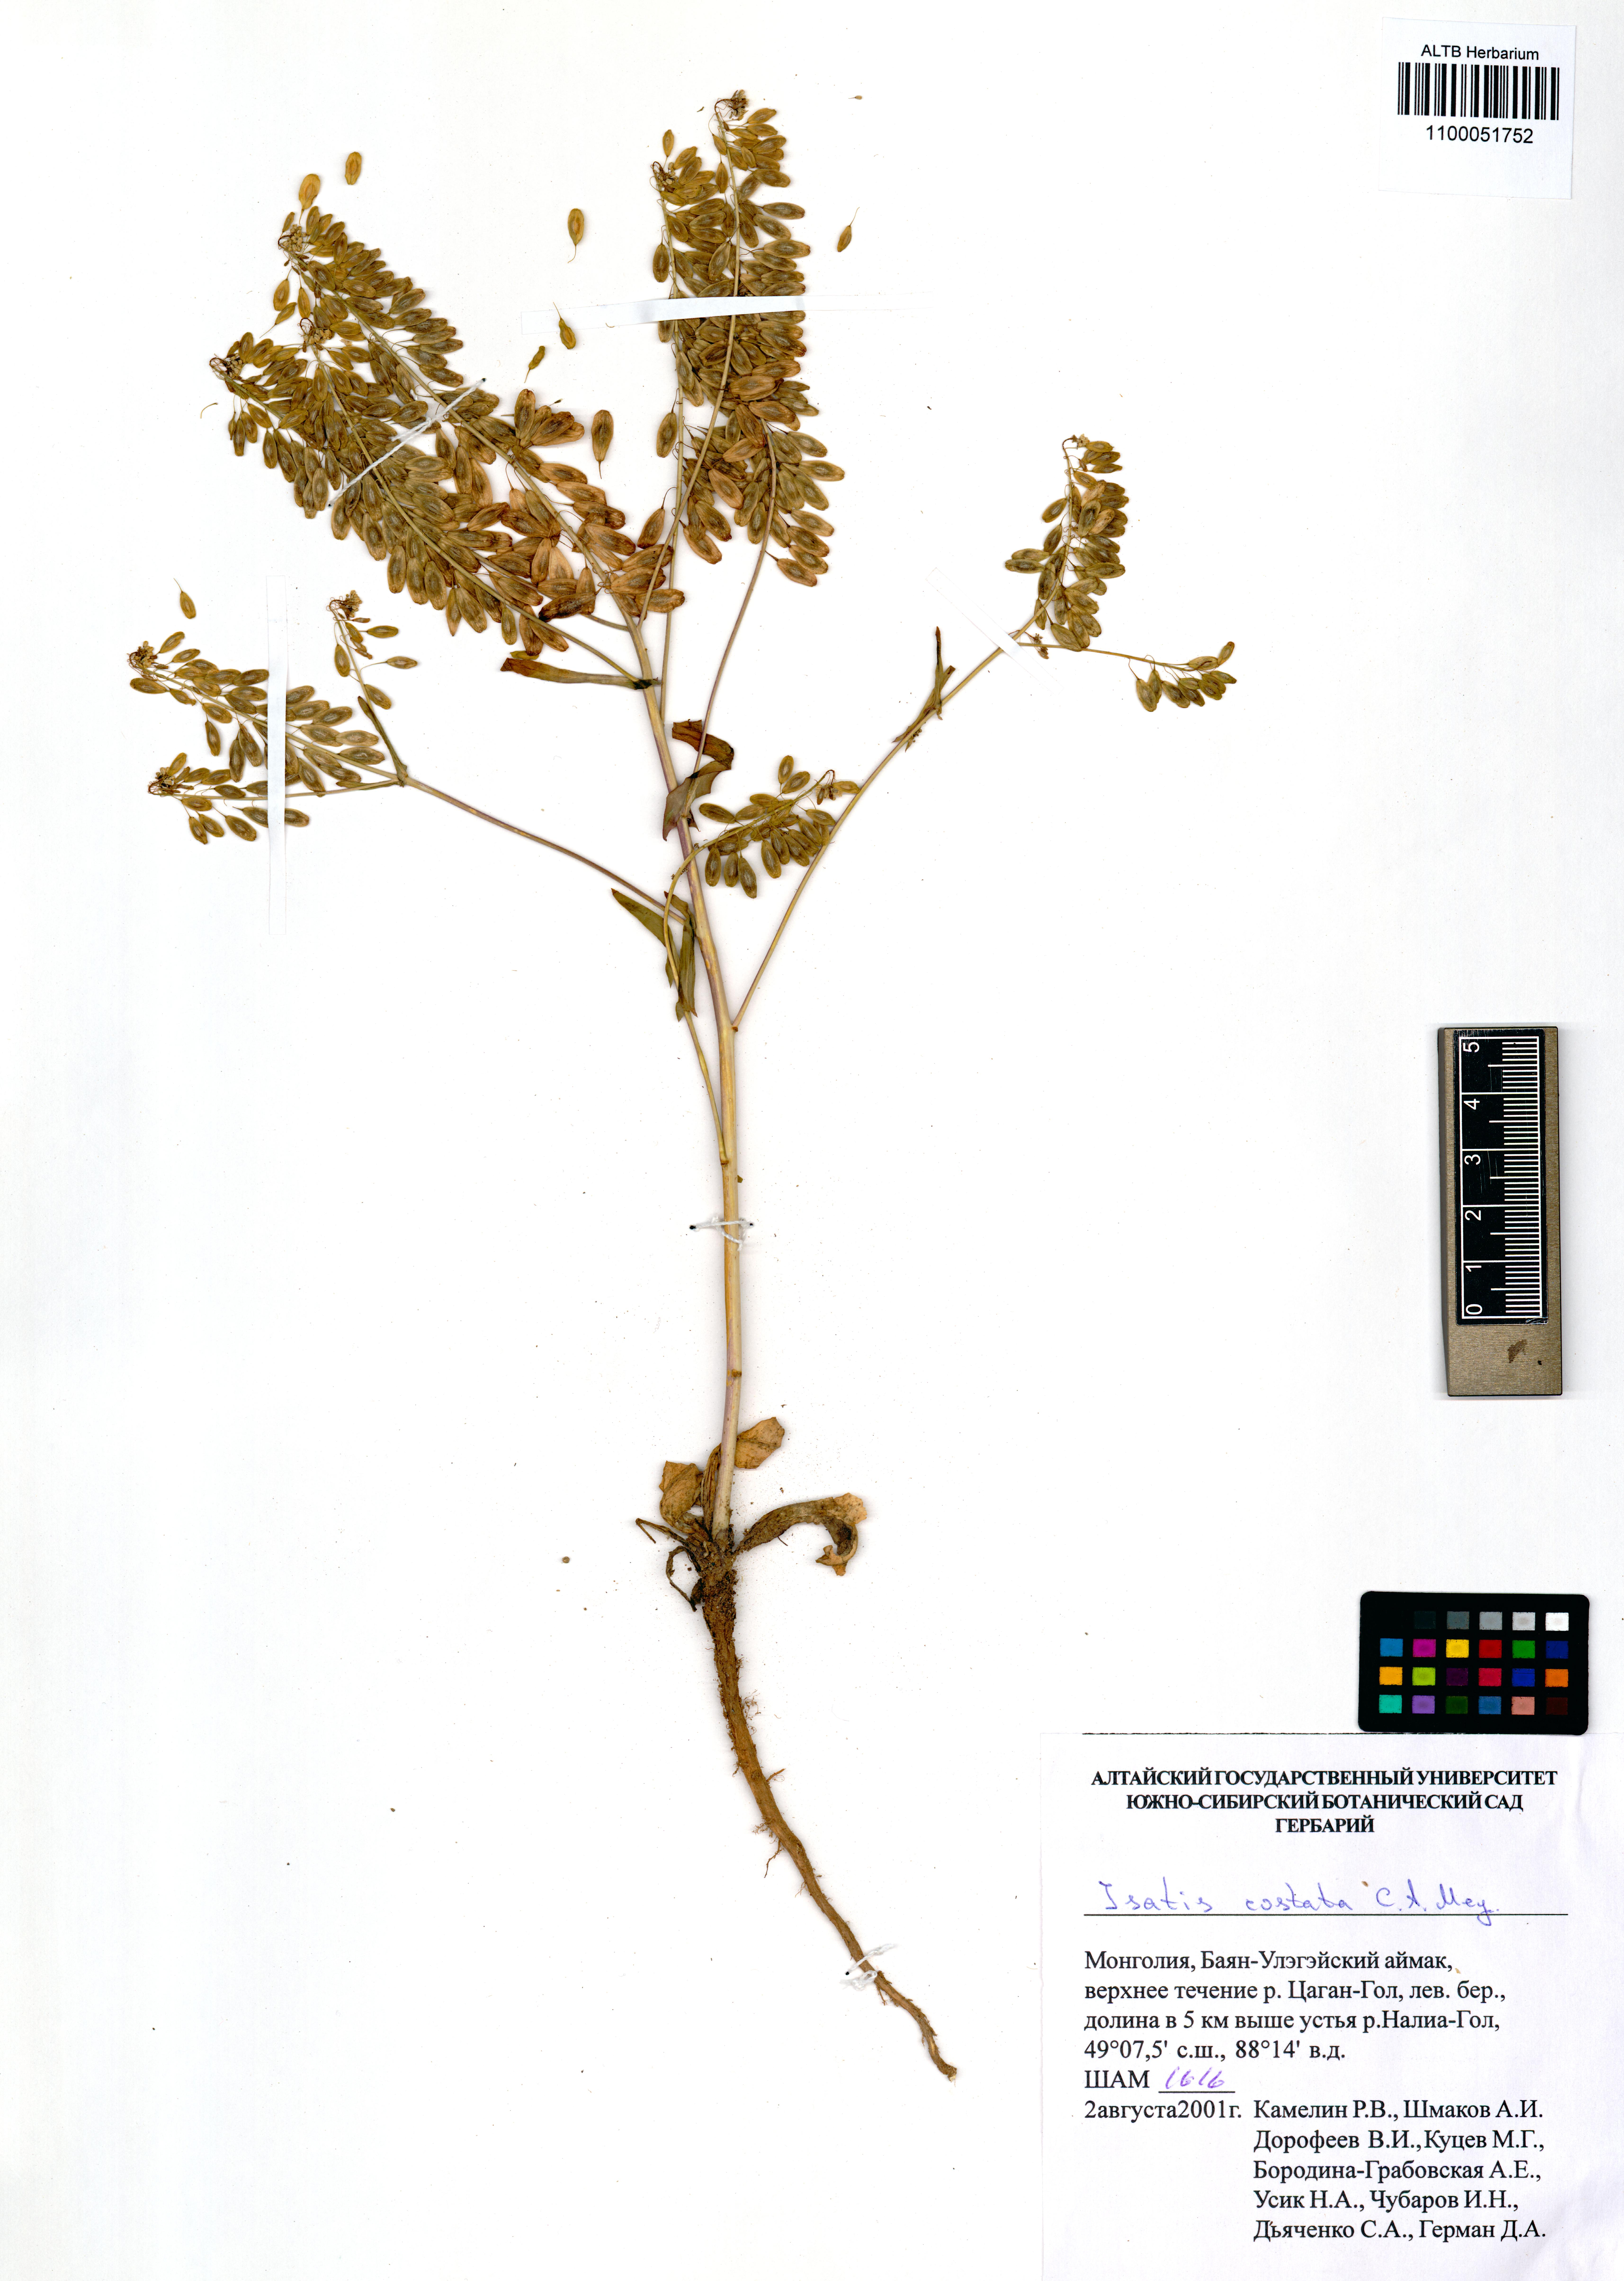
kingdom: Plantae
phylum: Tracheophyta
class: Magnoliopsida
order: Brassicales
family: Brassicaceae
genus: Isatis
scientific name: Isatis costata
